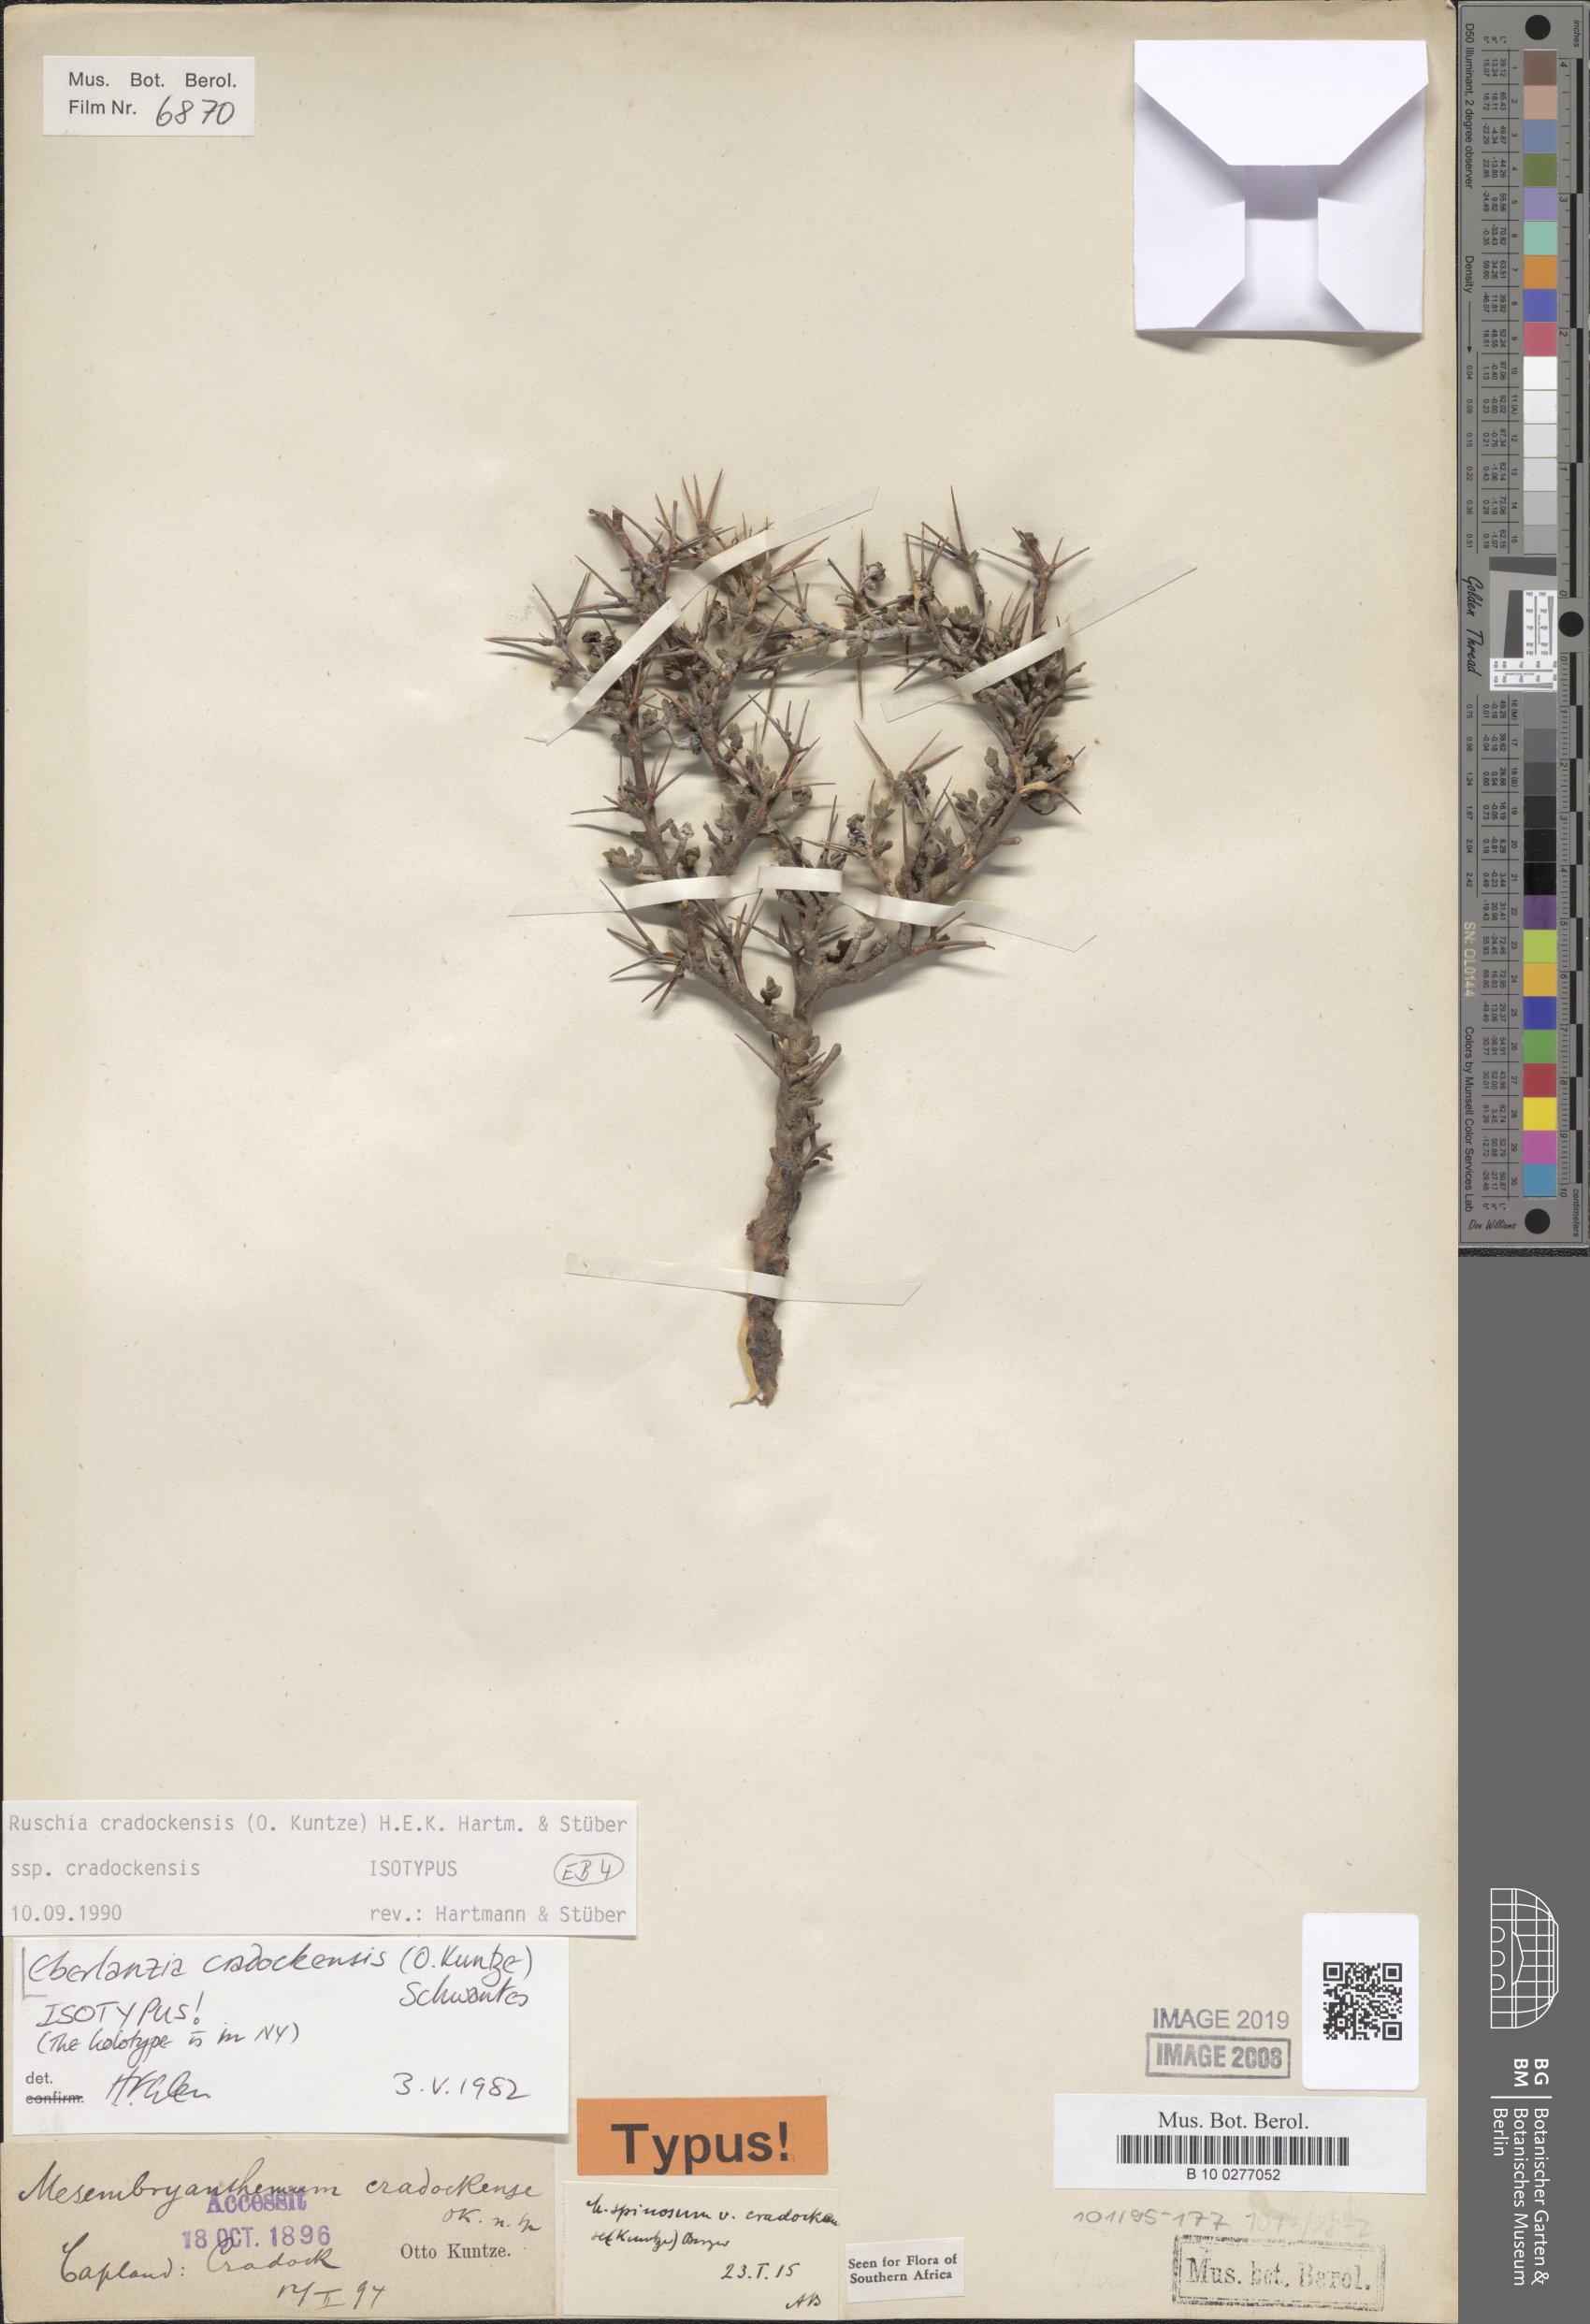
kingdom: Plantae
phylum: Tracheophyta
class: Magnoliopsida
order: Caryophyllales
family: Aizoaceae
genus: Ruschia
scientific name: Ruschia cradockensis
